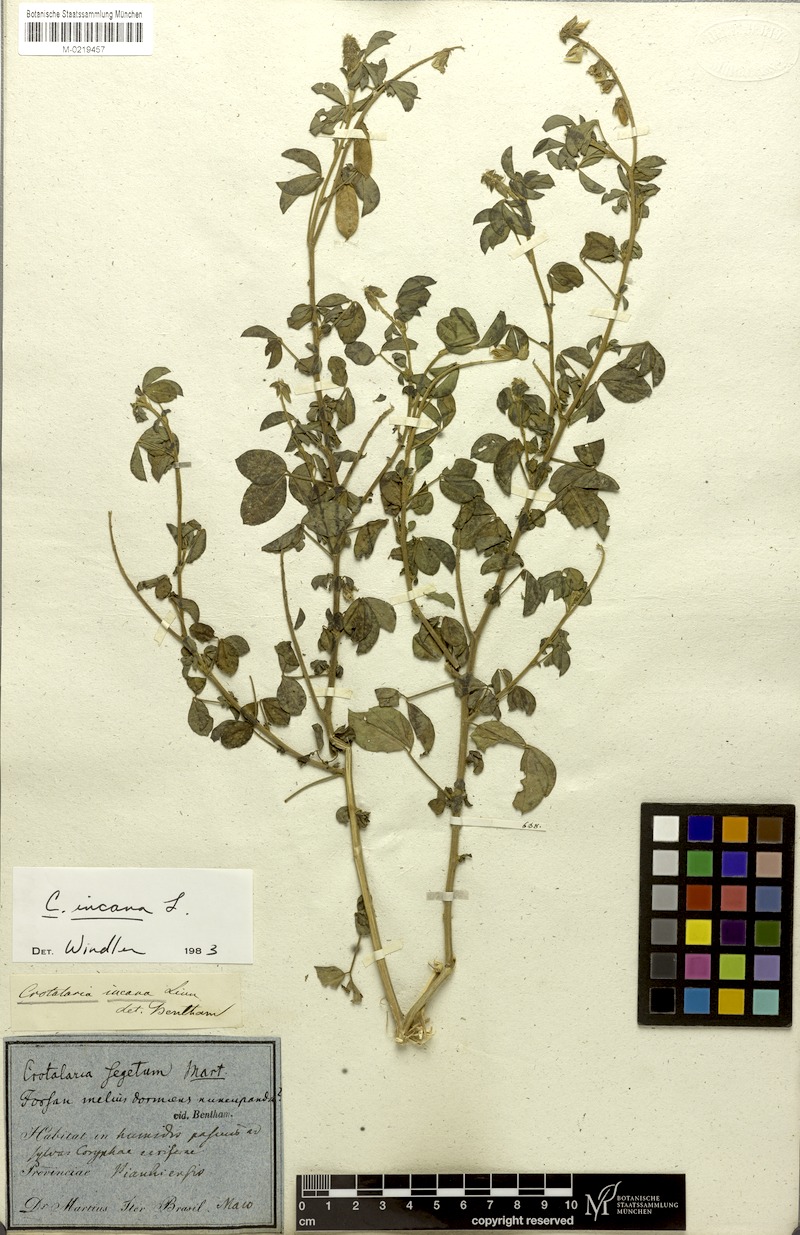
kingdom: Plantae
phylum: Tracheophyta
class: Magnoliopsida
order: Fabales
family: Fabaceae
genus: Crotalaria
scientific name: Crotalaria incana
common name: Shakeshake
